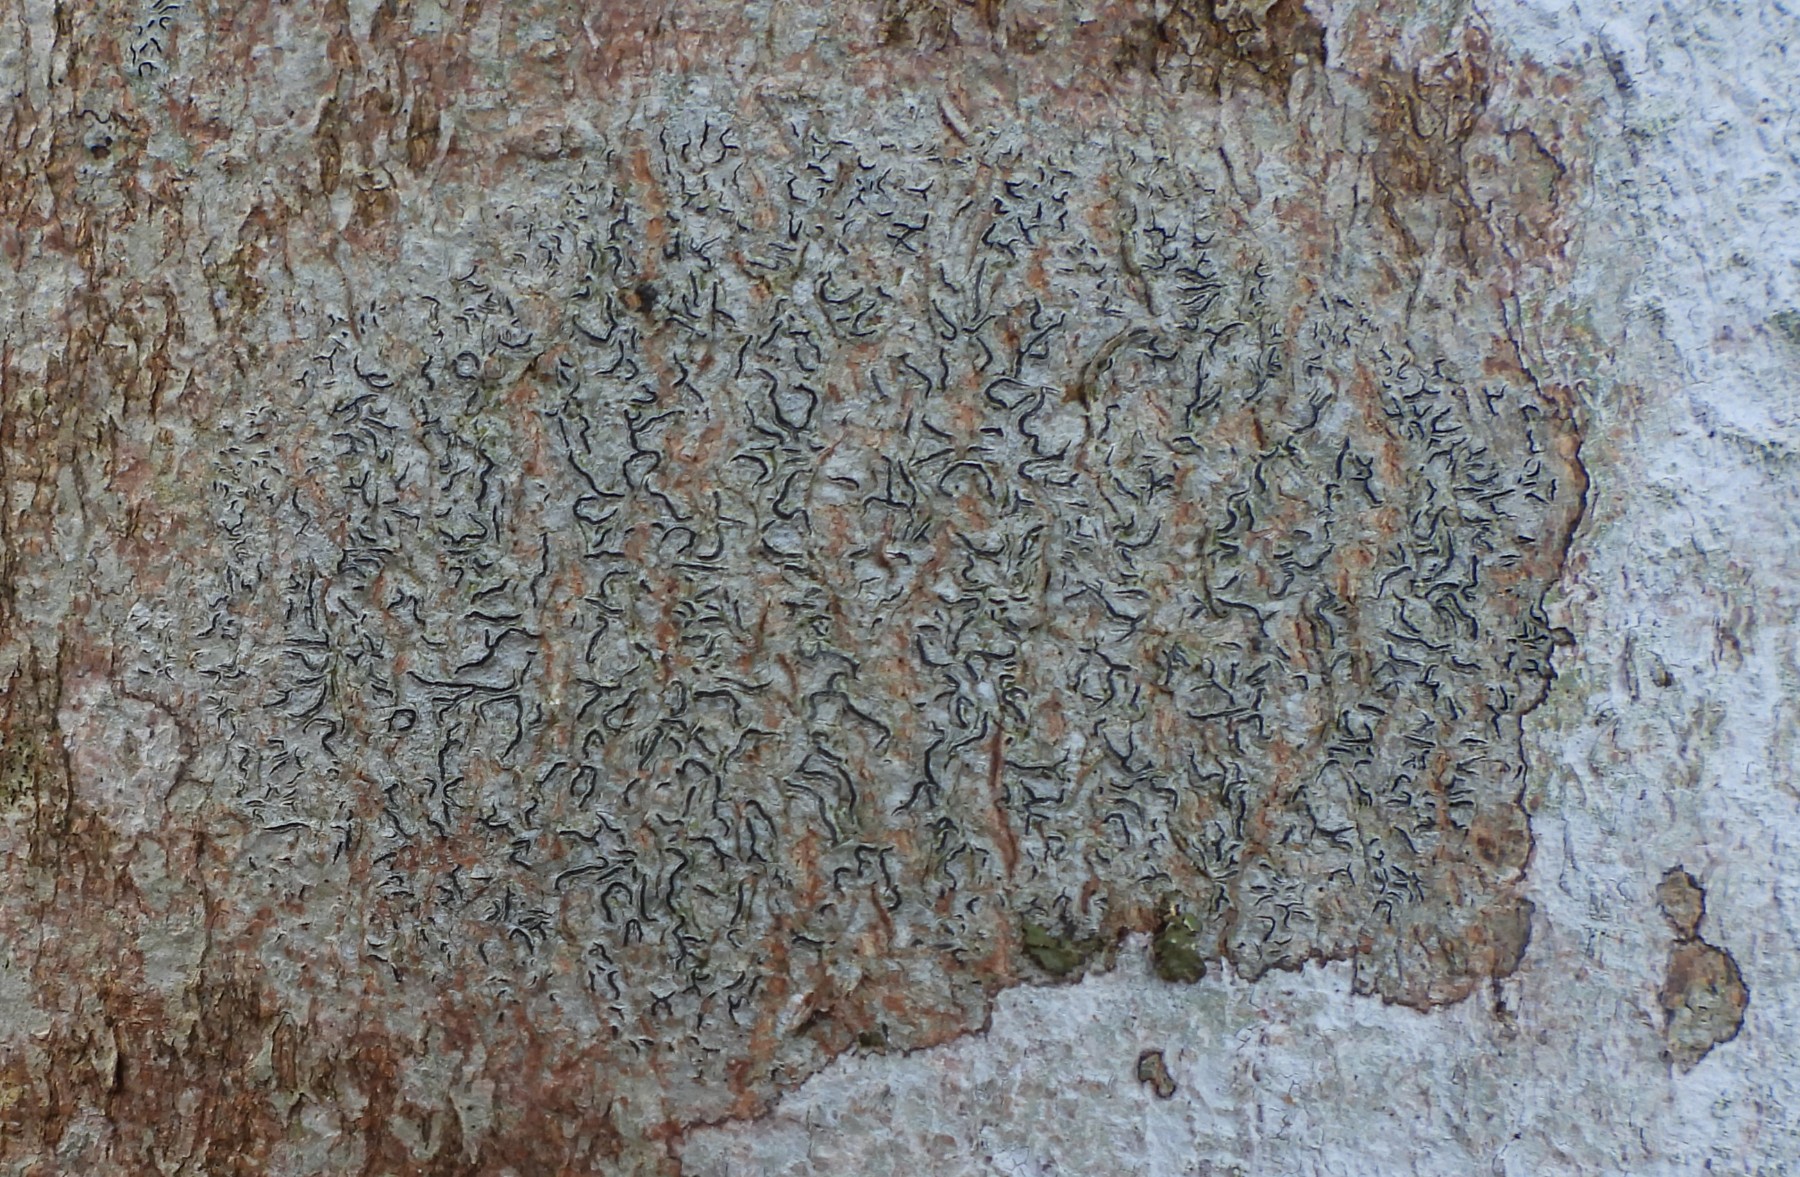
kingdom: Fungi
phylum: Ascomycota
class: Lecanoromycetes
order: Ostropales
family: Graphidaceae
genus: Graphis
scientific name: Graphis scripta
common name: almindelig skriftlav
